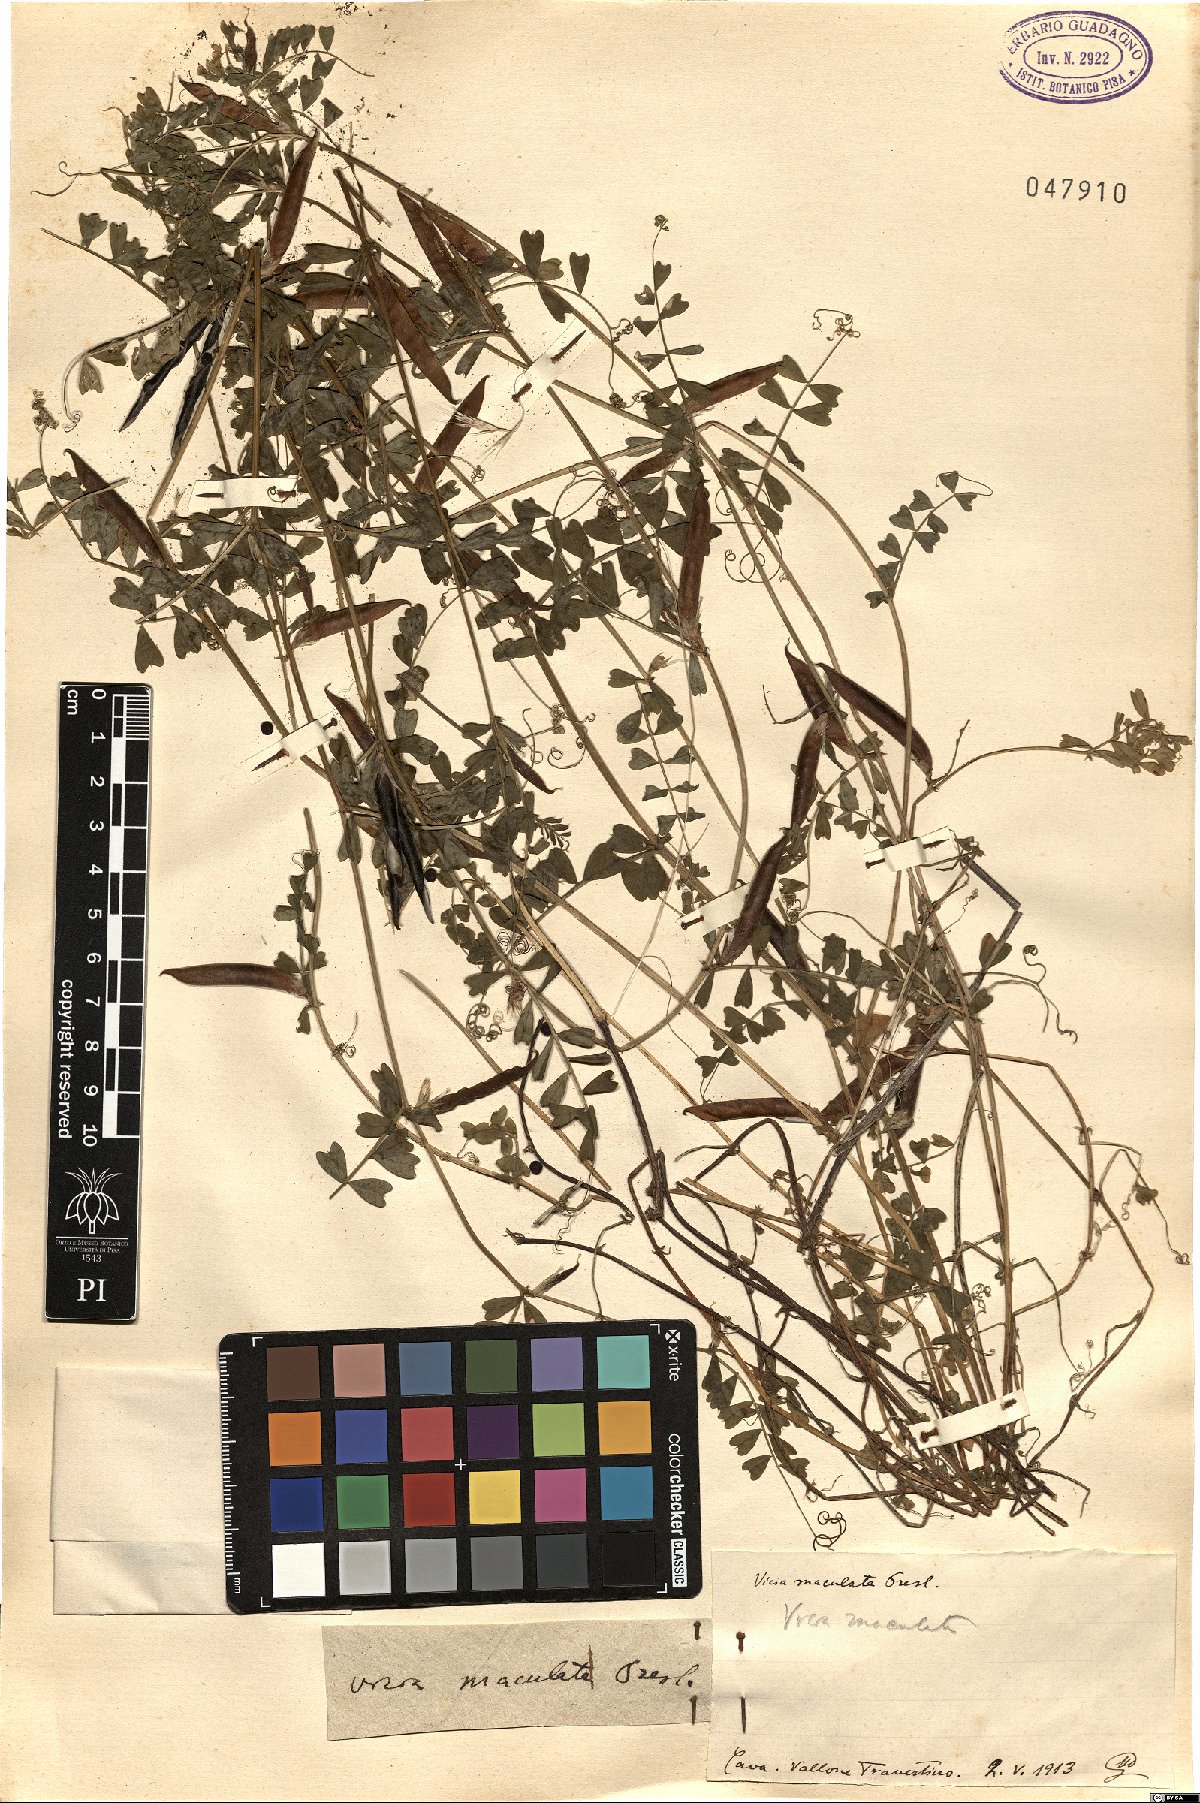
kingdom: Plantae
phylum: Tracheophyta
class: Magnoliopsida
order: Fabales
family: Fabaceae
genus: Vicia
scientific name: Vicia sativa
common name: Garden vetch
